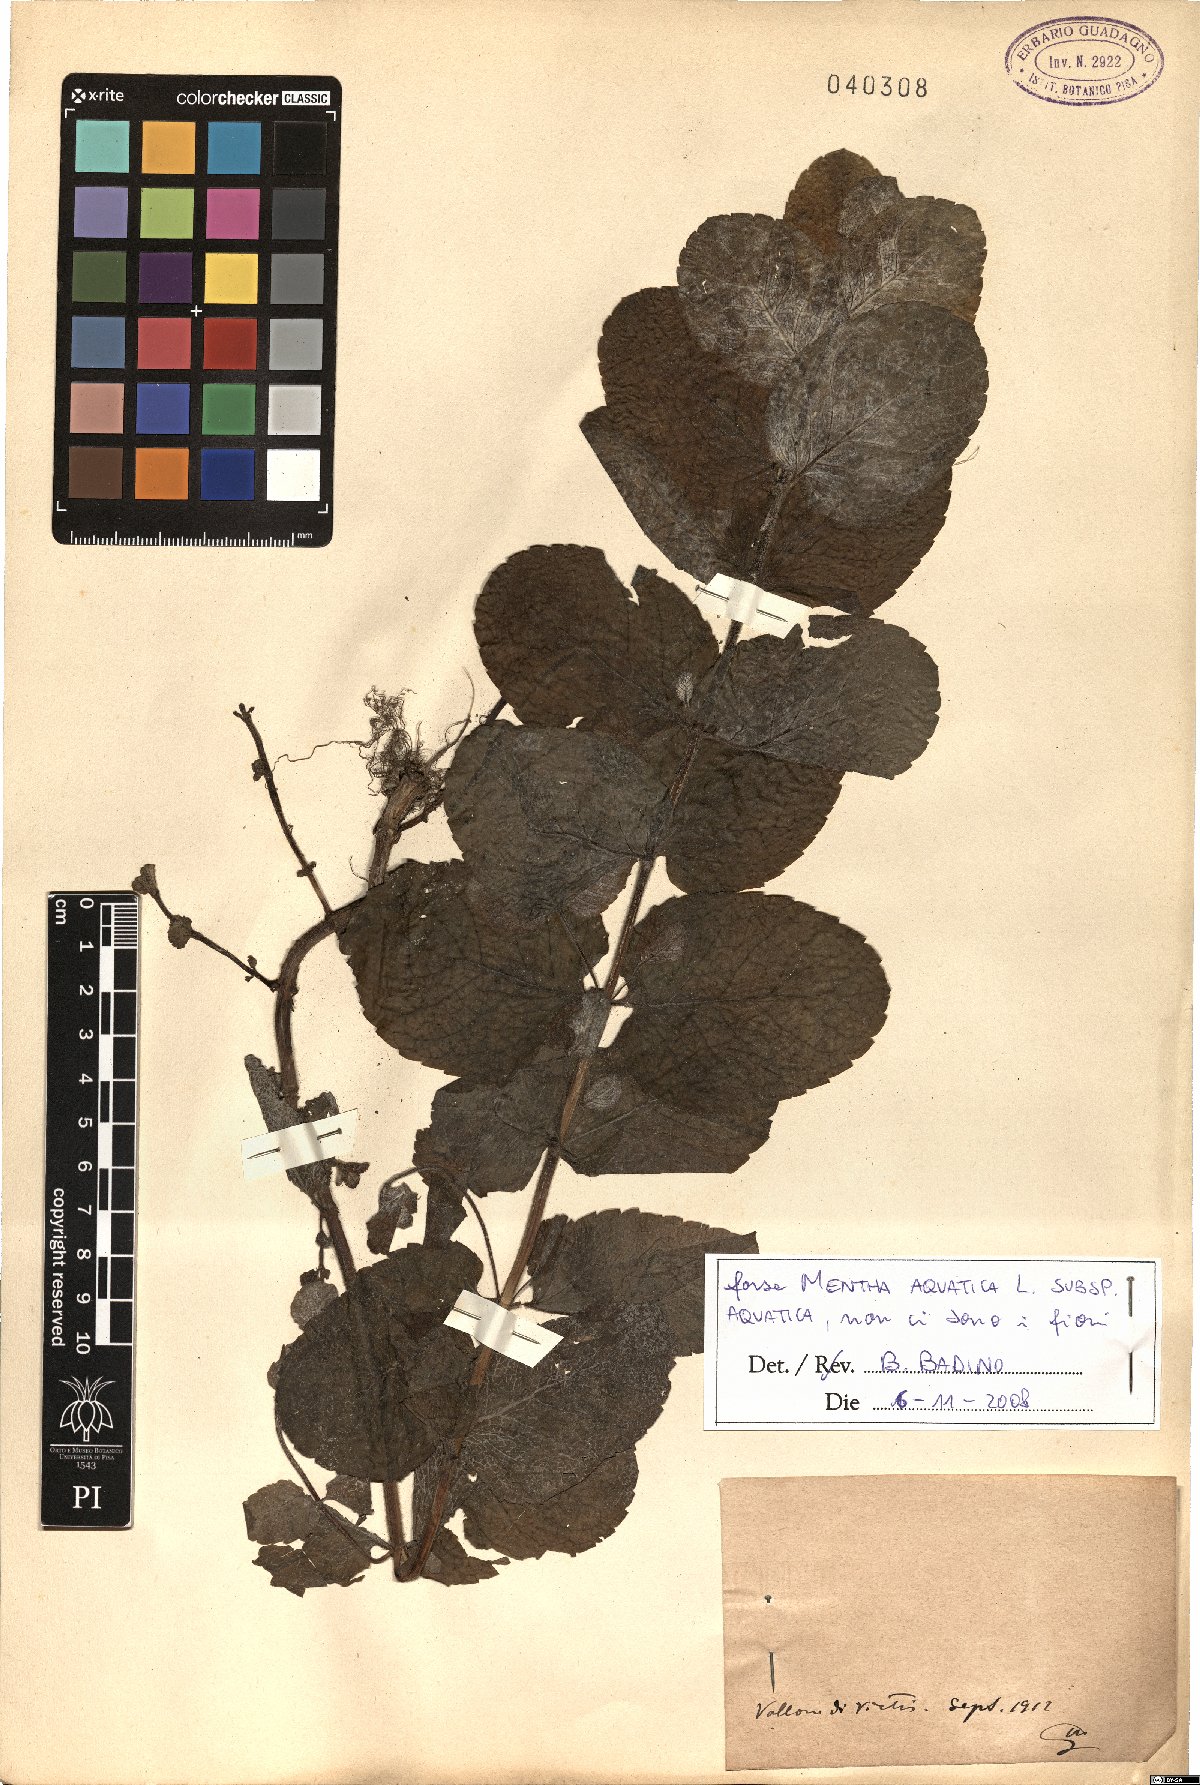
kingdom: Plantae
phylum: Tracheophyta
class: Magnoliopsida
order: Lamiales
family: Lamiaceae
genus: Mentha
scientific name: Mentha aquatica
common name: Water mint
